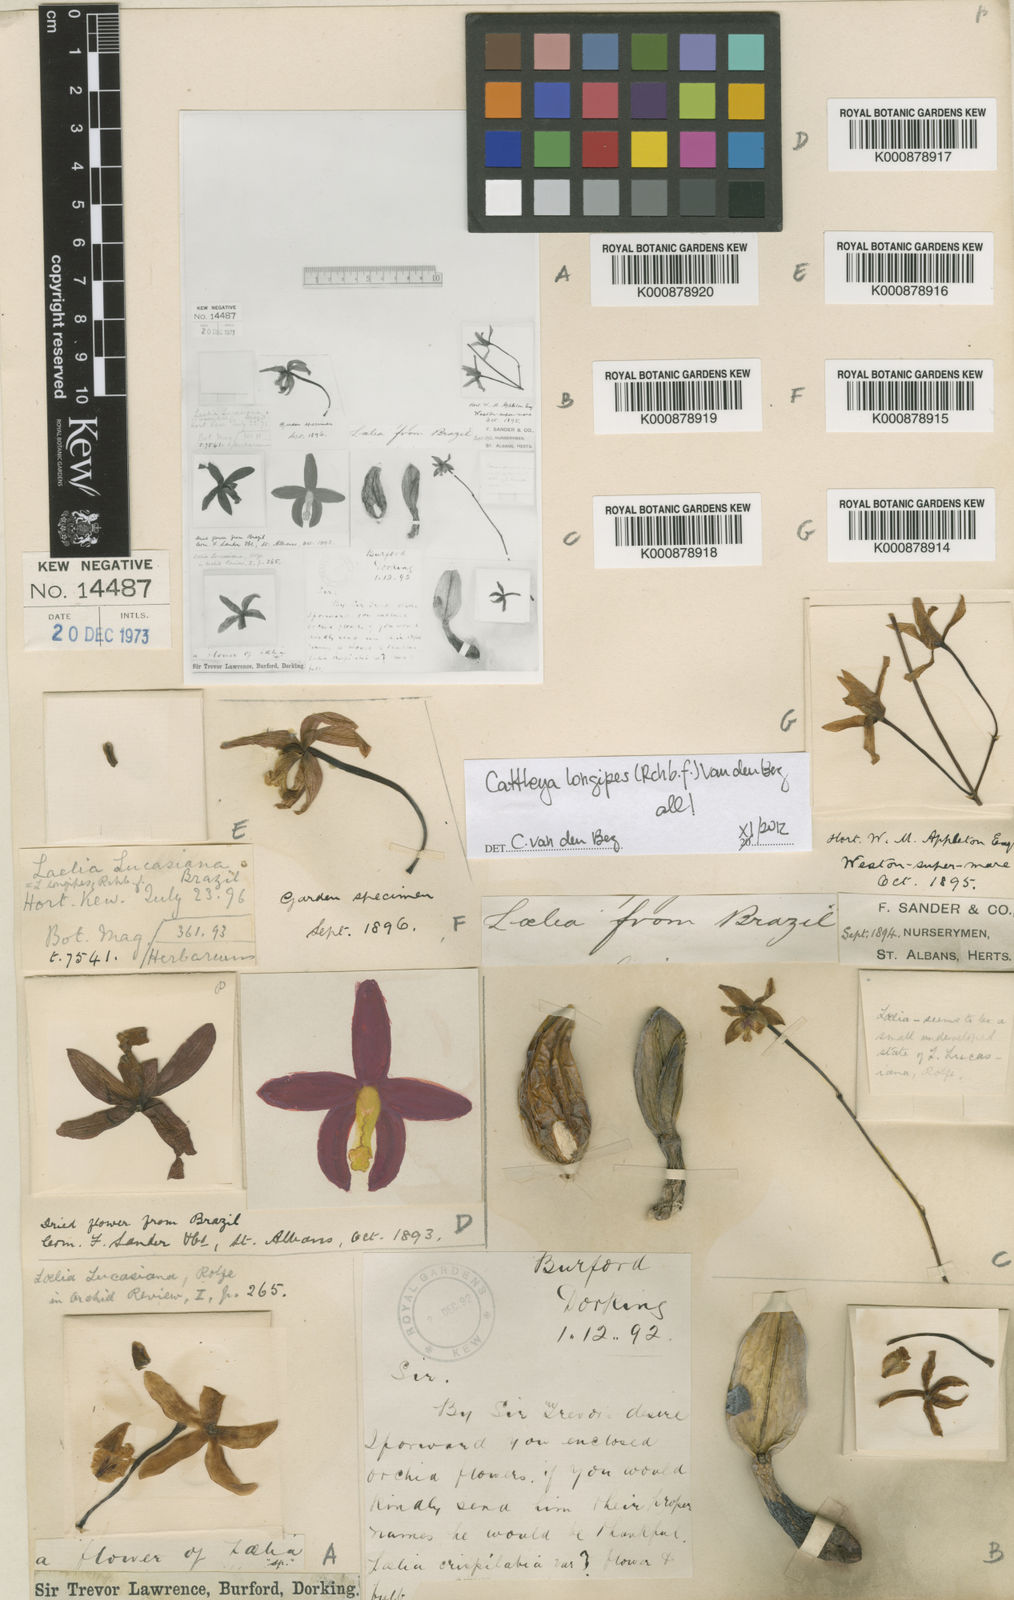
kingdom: Plantae
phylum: Tracheophyta
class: Liliopsida
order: Asparagales
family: Orchidaceae
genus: Cattleya
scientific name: Cattleya longipes
